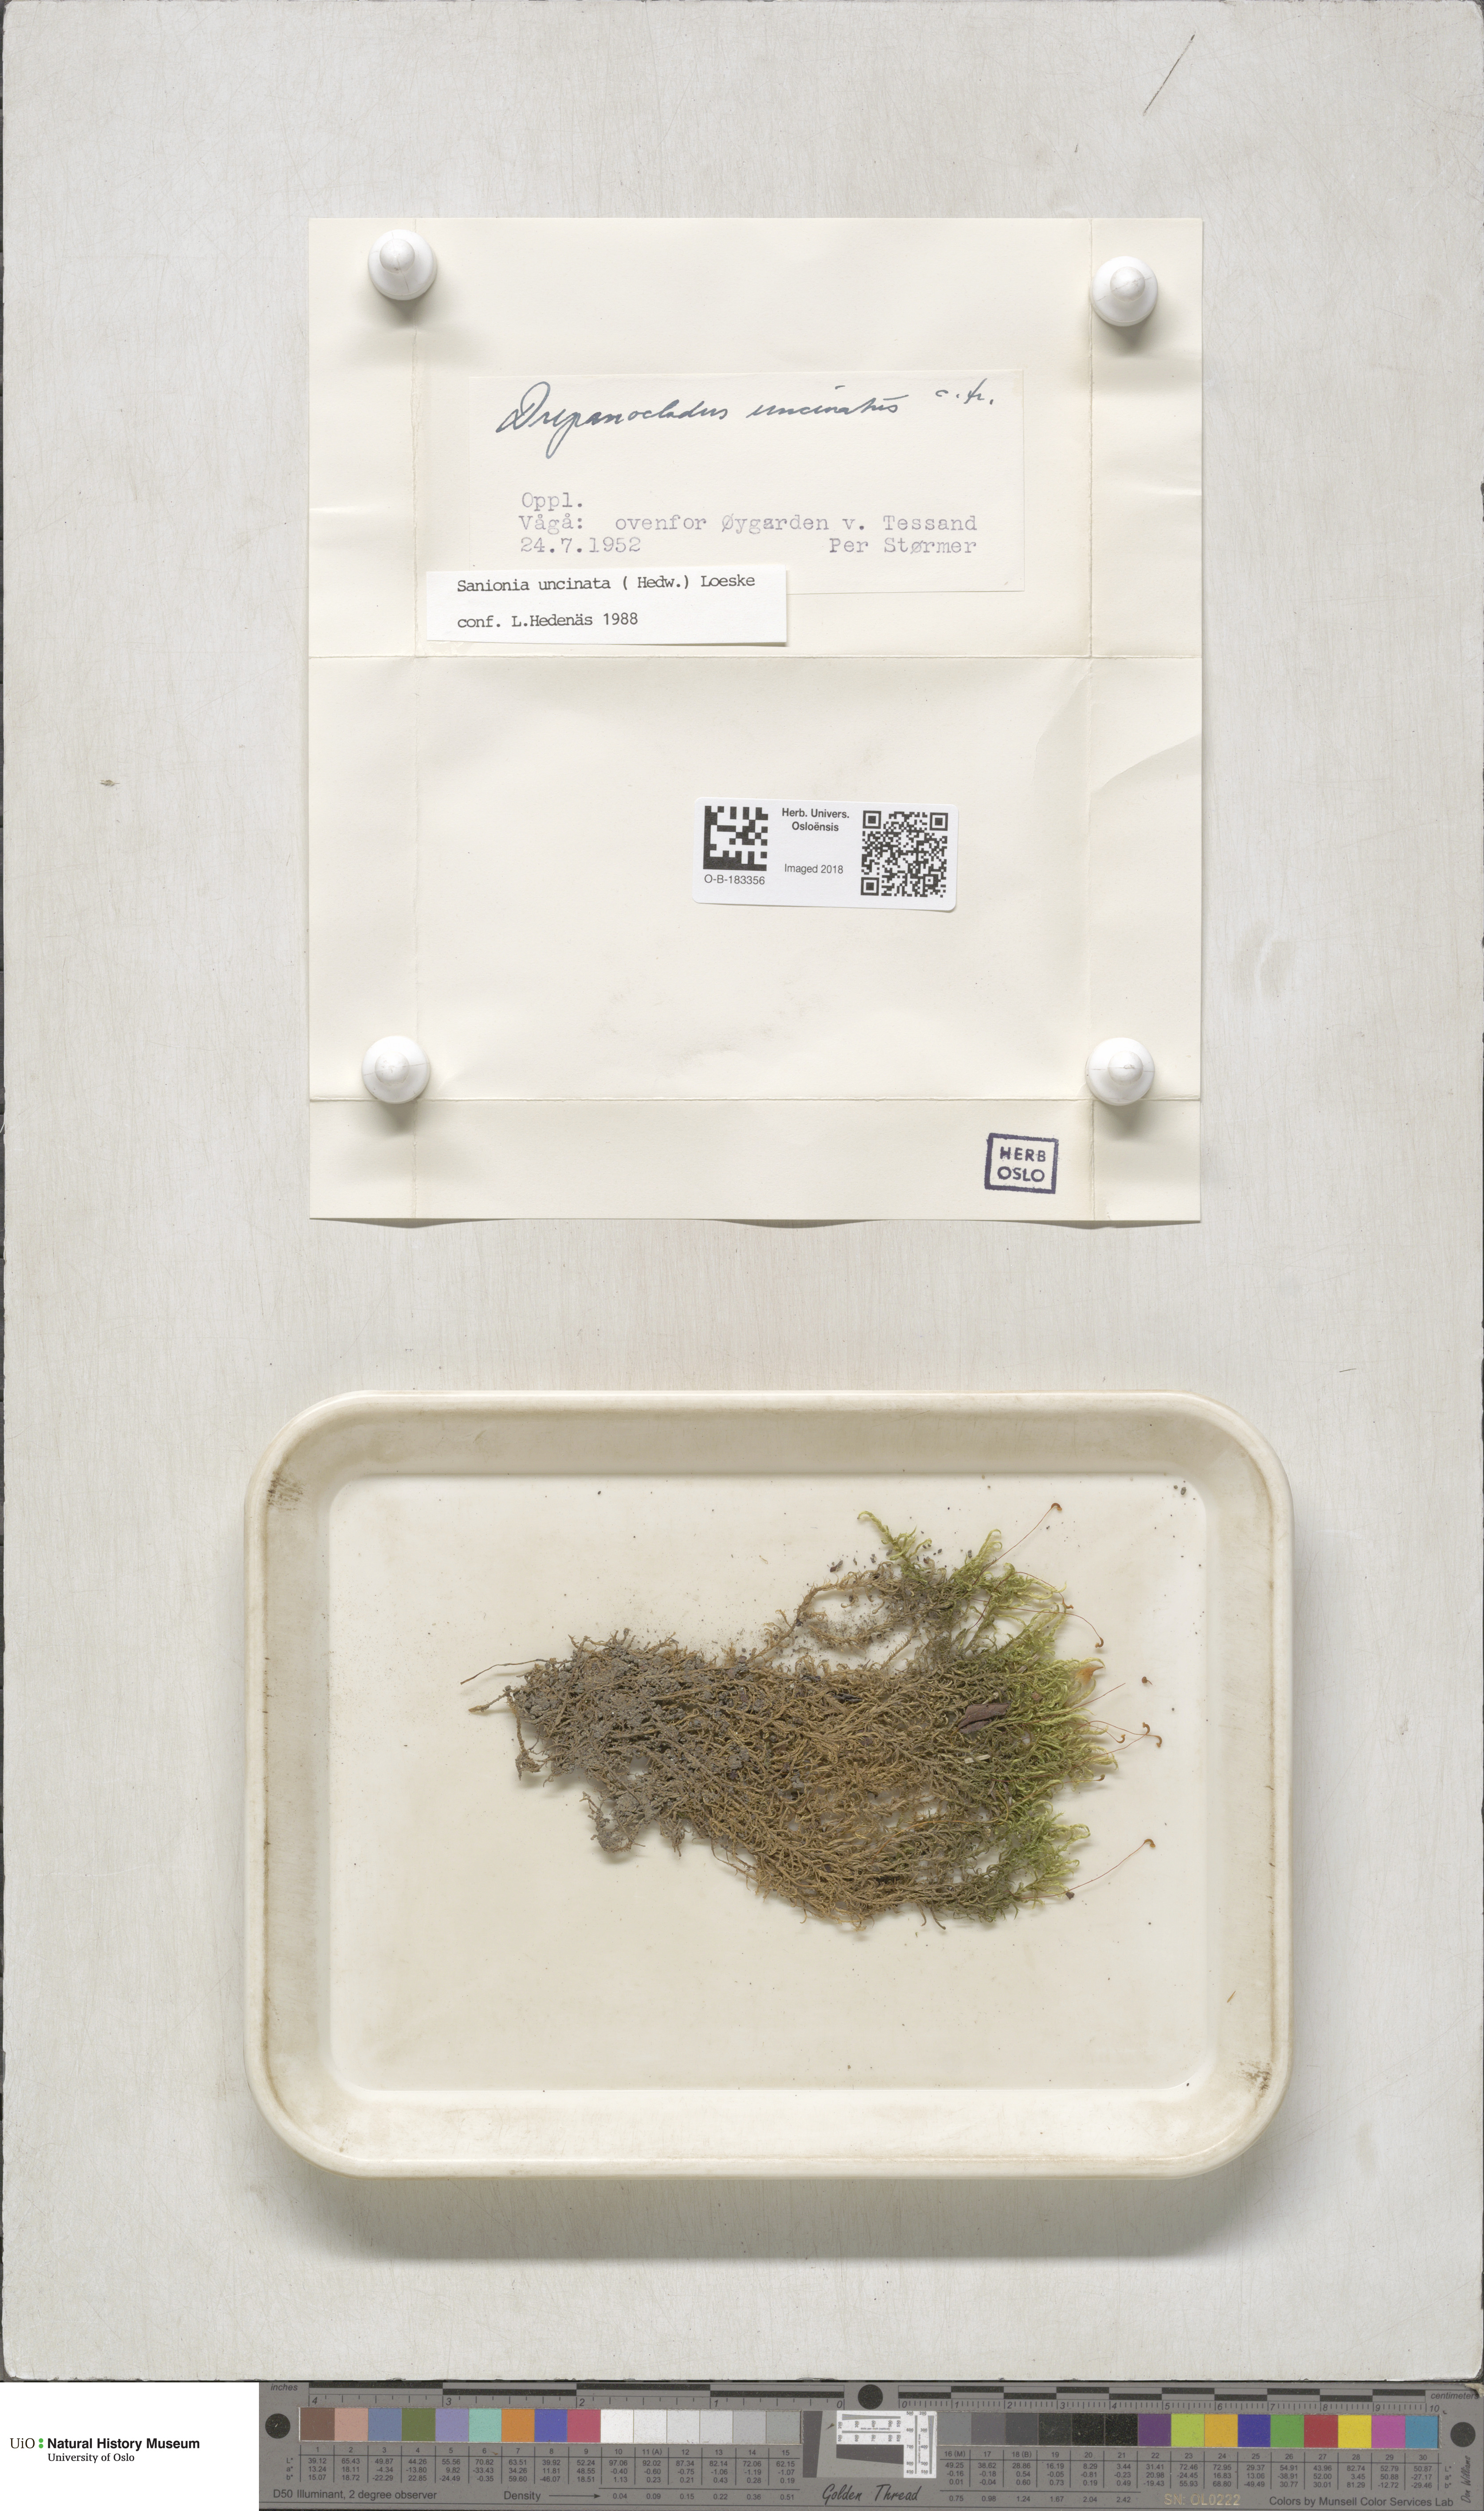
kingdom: Plantae
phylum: Bryophyta
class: Bryopsida
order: Hypnales
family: Scorpidiaceae
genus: Sanionia
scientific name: Sanionia uncinata
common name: Sickle moss
